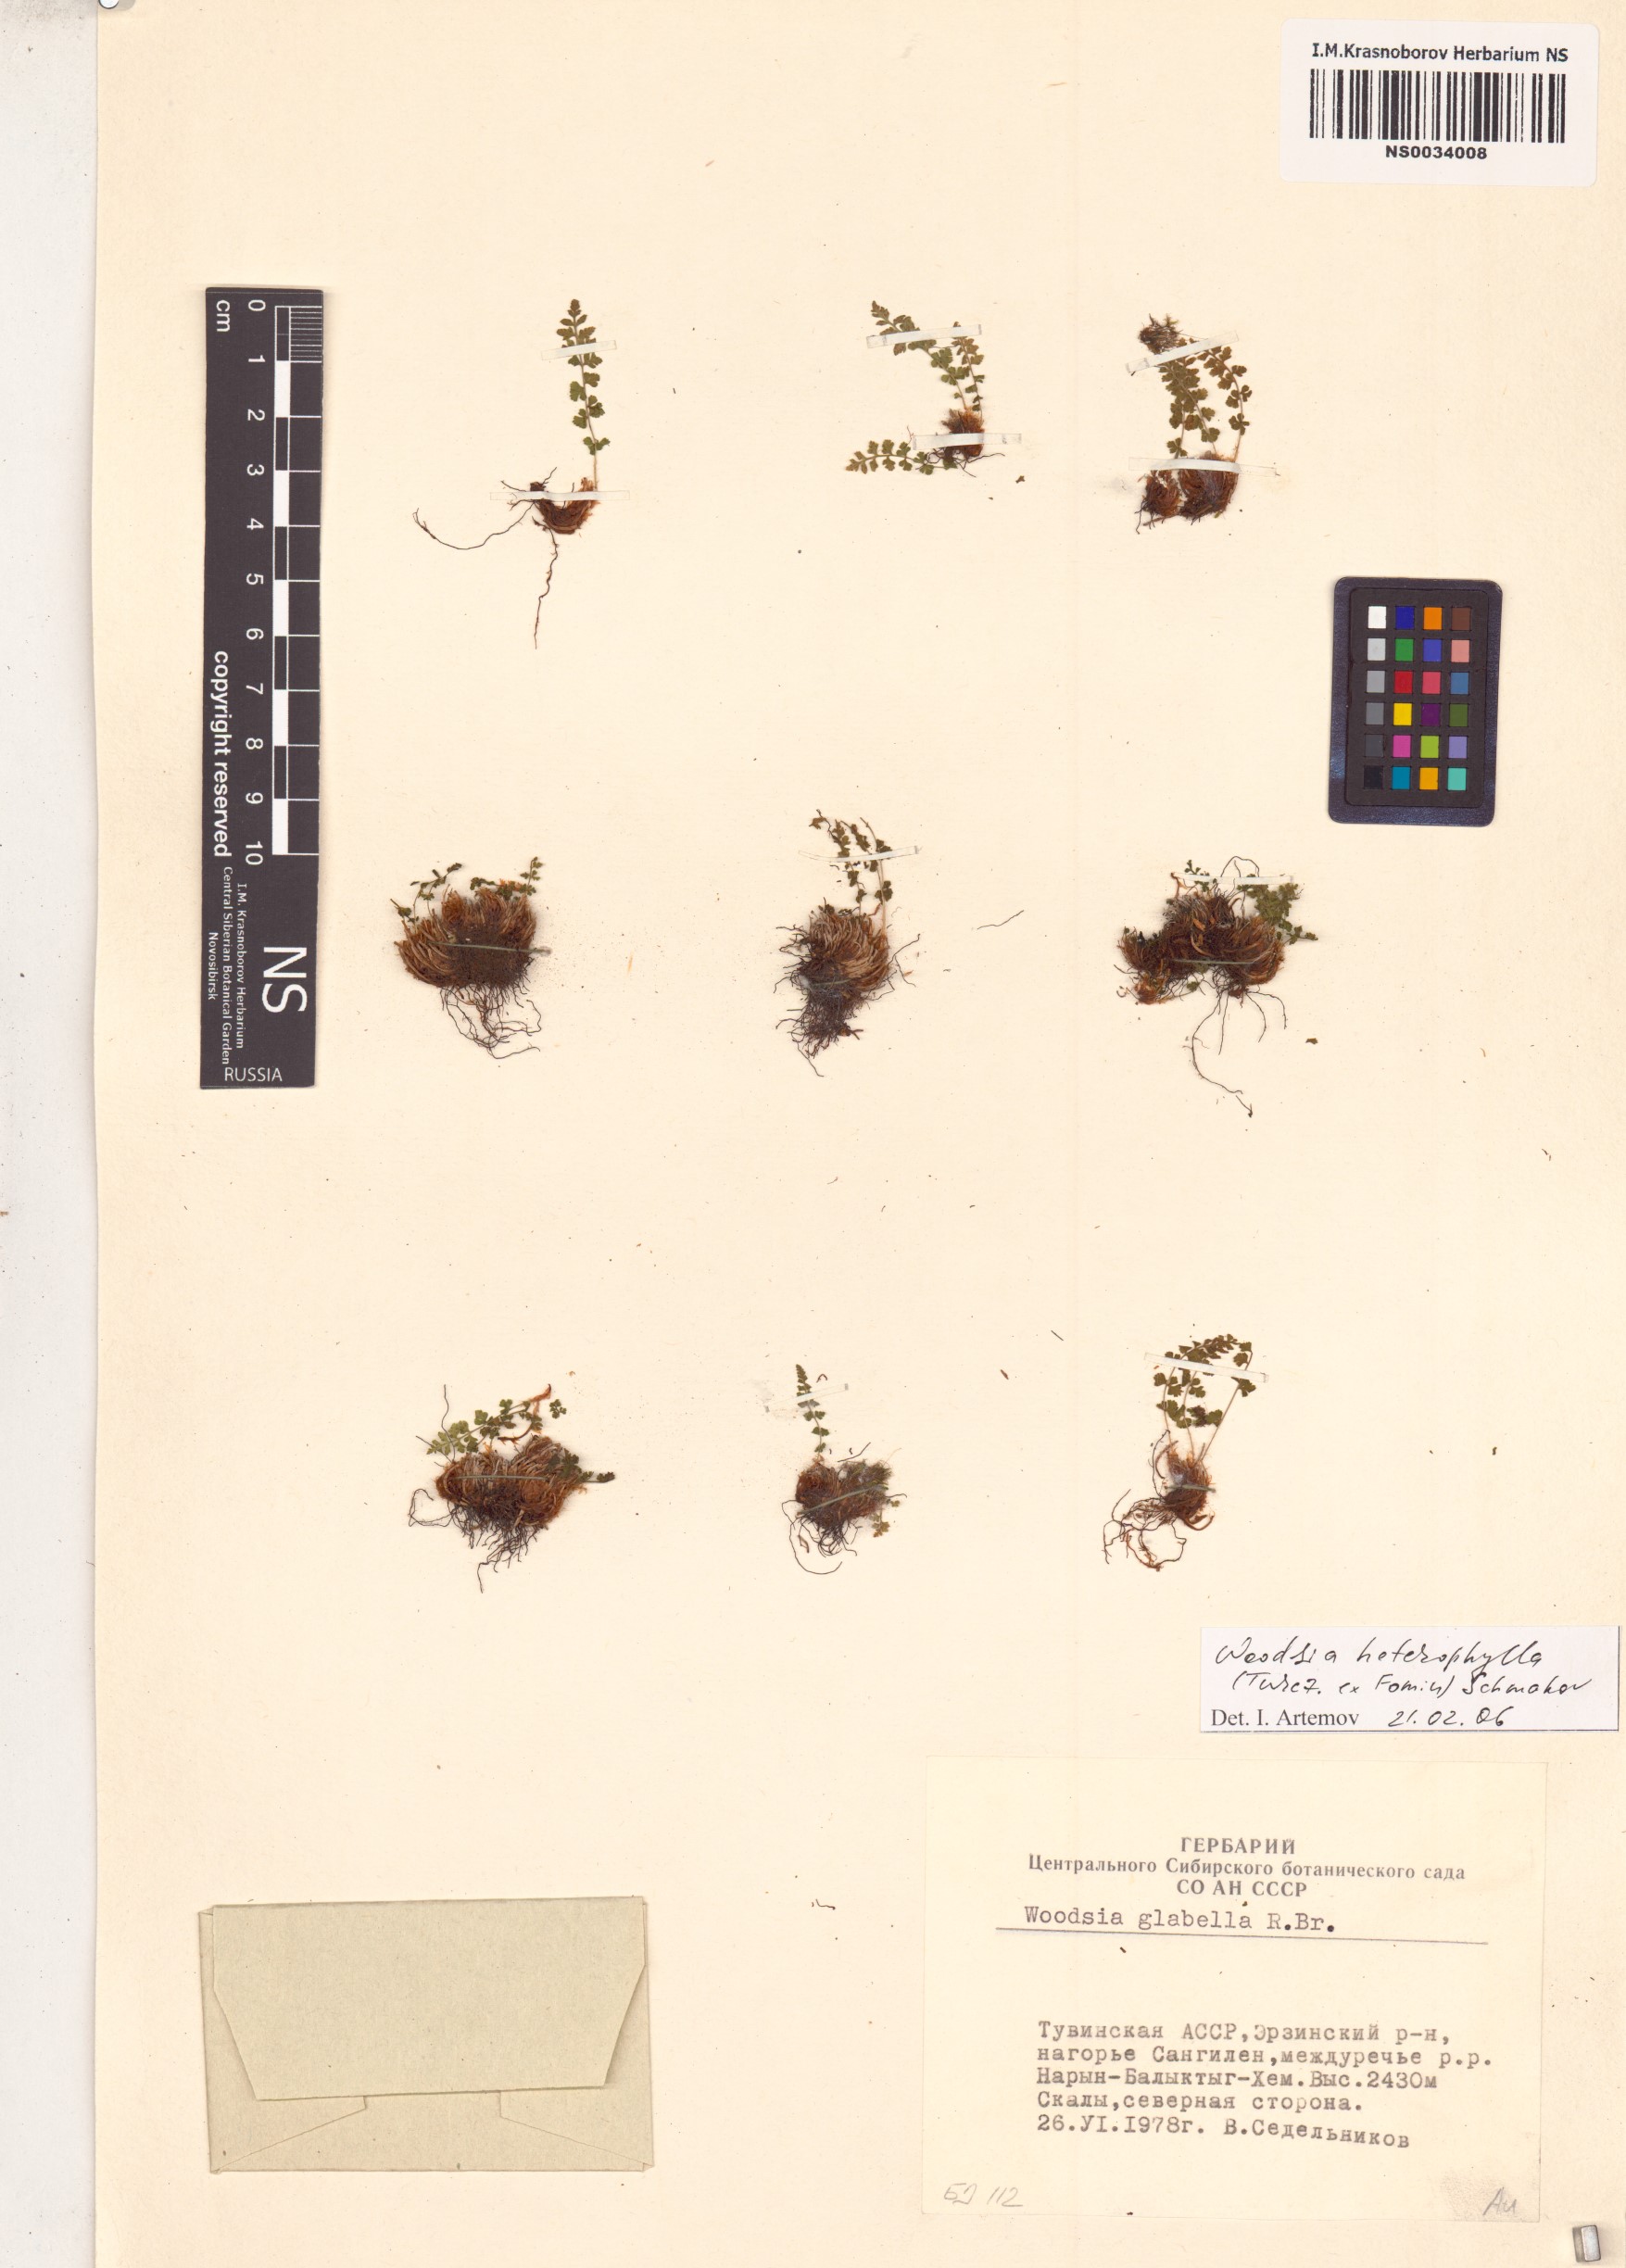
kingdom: Plantae
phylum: Tracheophyta
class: Polypodiopsida
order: Polypodiales
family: Woodsiaceae
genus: Woodsia
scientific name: Woodsia pulchella
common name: Graceful woodsia
